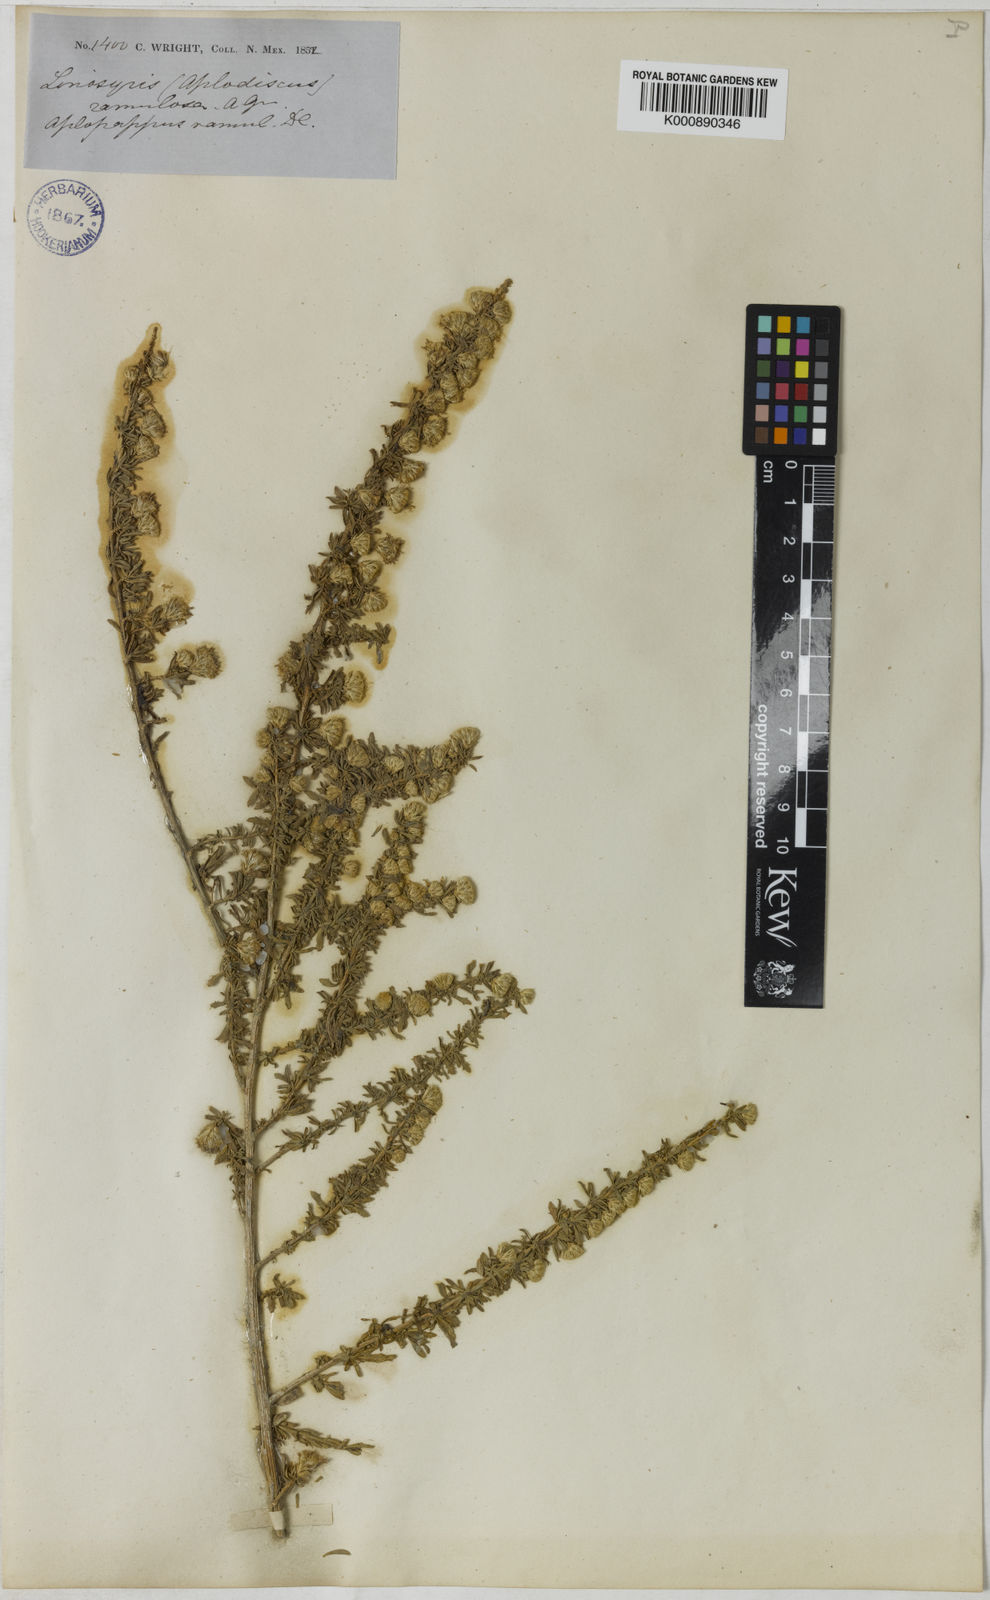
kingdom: Plantae
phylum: Tracheophyta
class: Magnoliopsida
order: Asterales
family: Asteraceae
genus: Baccharis
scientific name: Baccharis pteronioides
